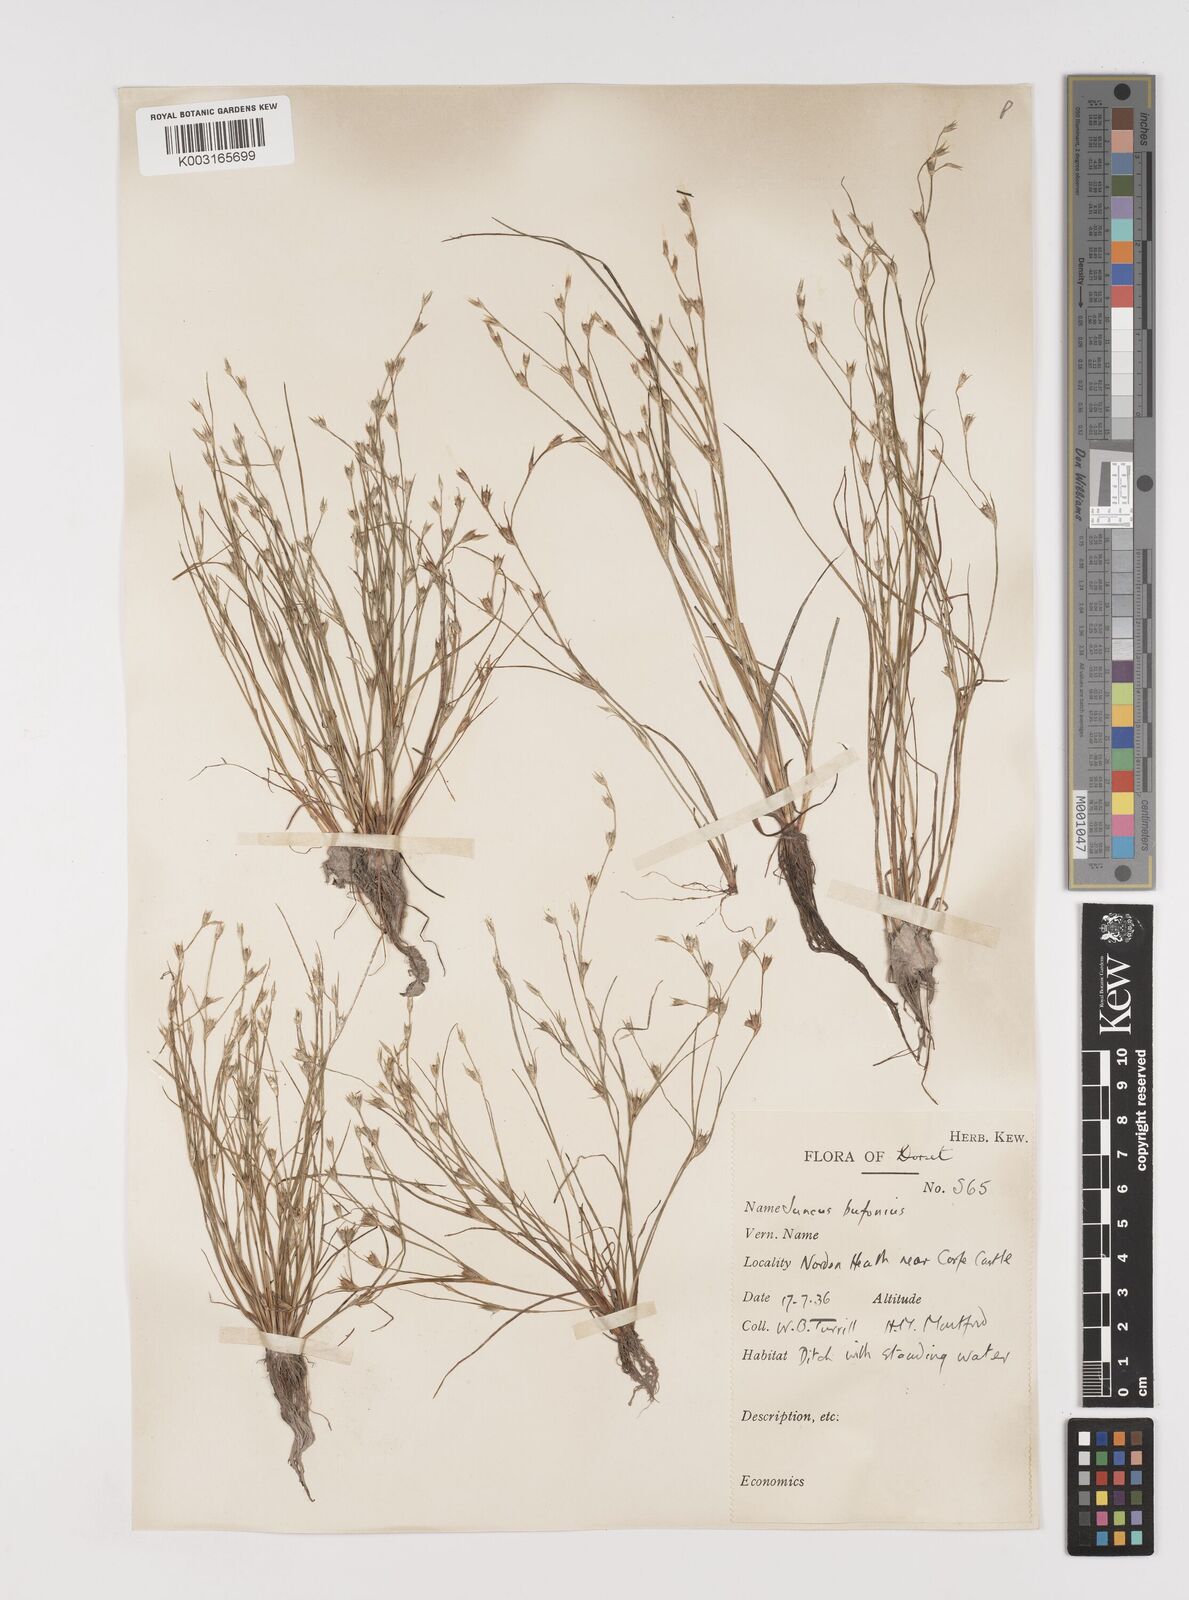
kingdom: Plantae
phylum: Tracheophyta
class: Liliopsida
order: Poales
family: Juncaceae
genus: Juncus
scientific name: Juncus bufonius
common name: Toad rush
